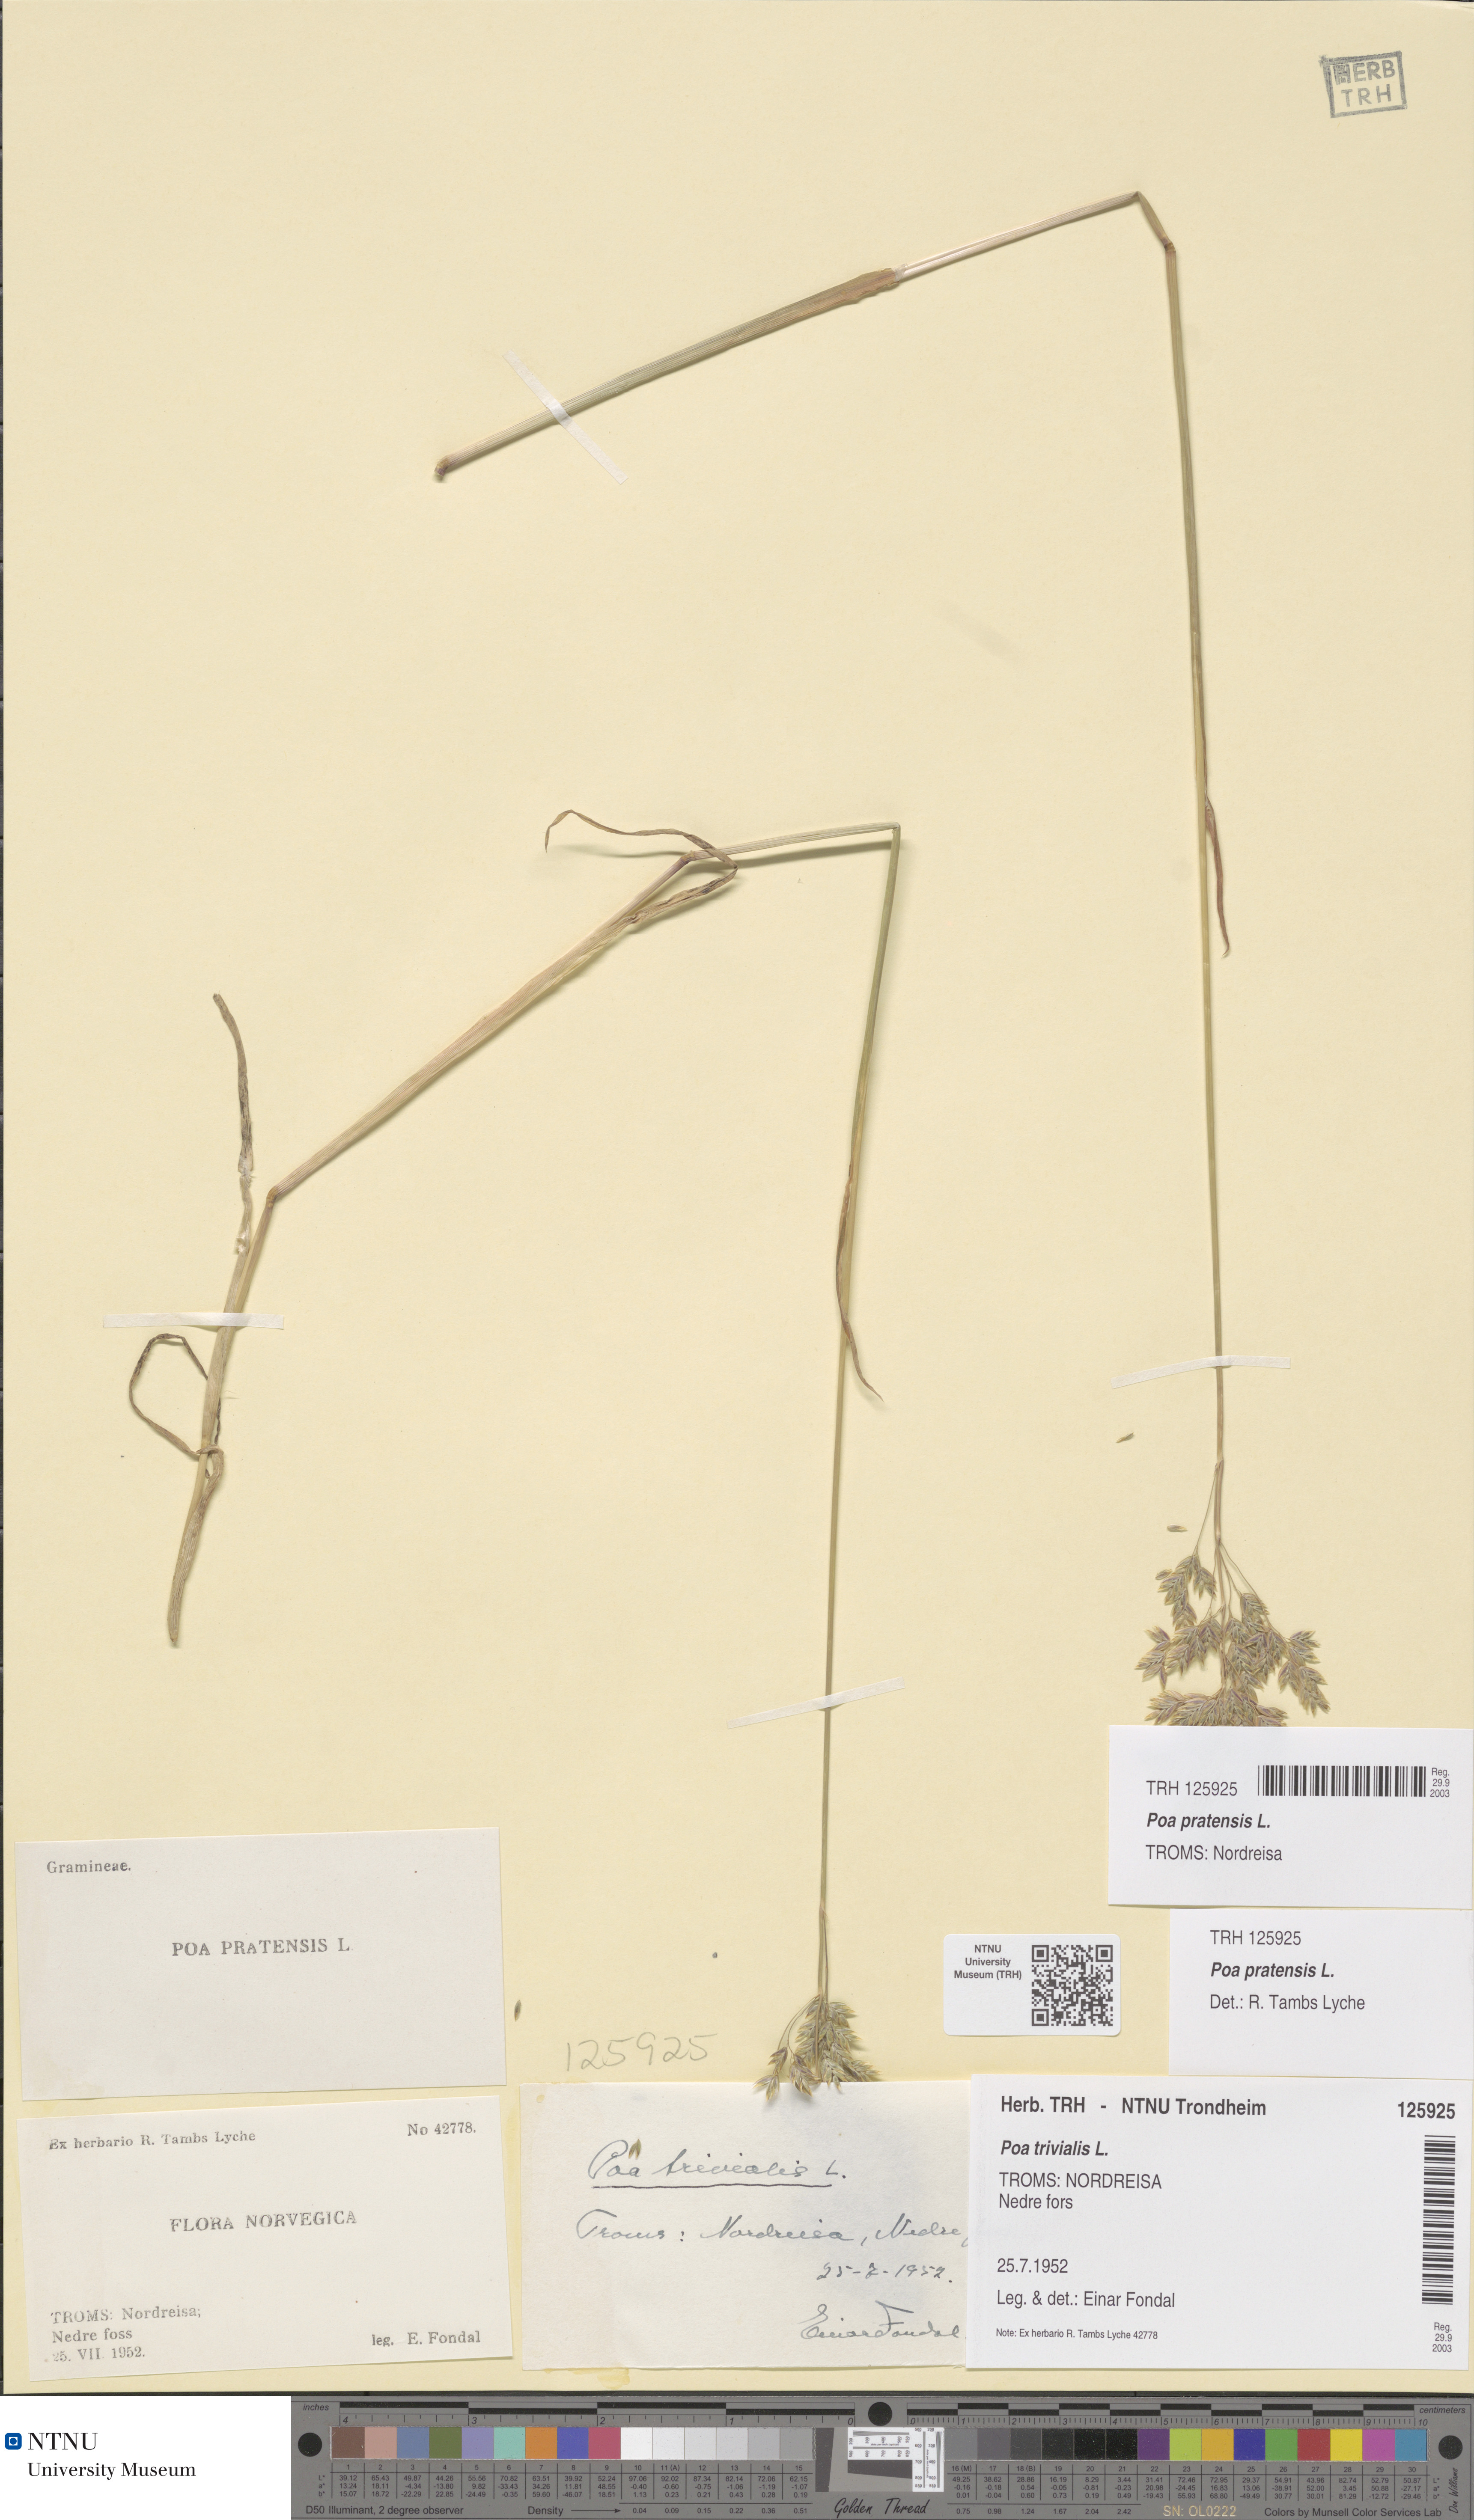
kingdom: Plantae
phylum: Tracheophyta
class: Liliopsida
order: Poales
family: Poaceae
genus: Poa
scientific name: Poa pratensis
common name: Kentucky bluegrass
